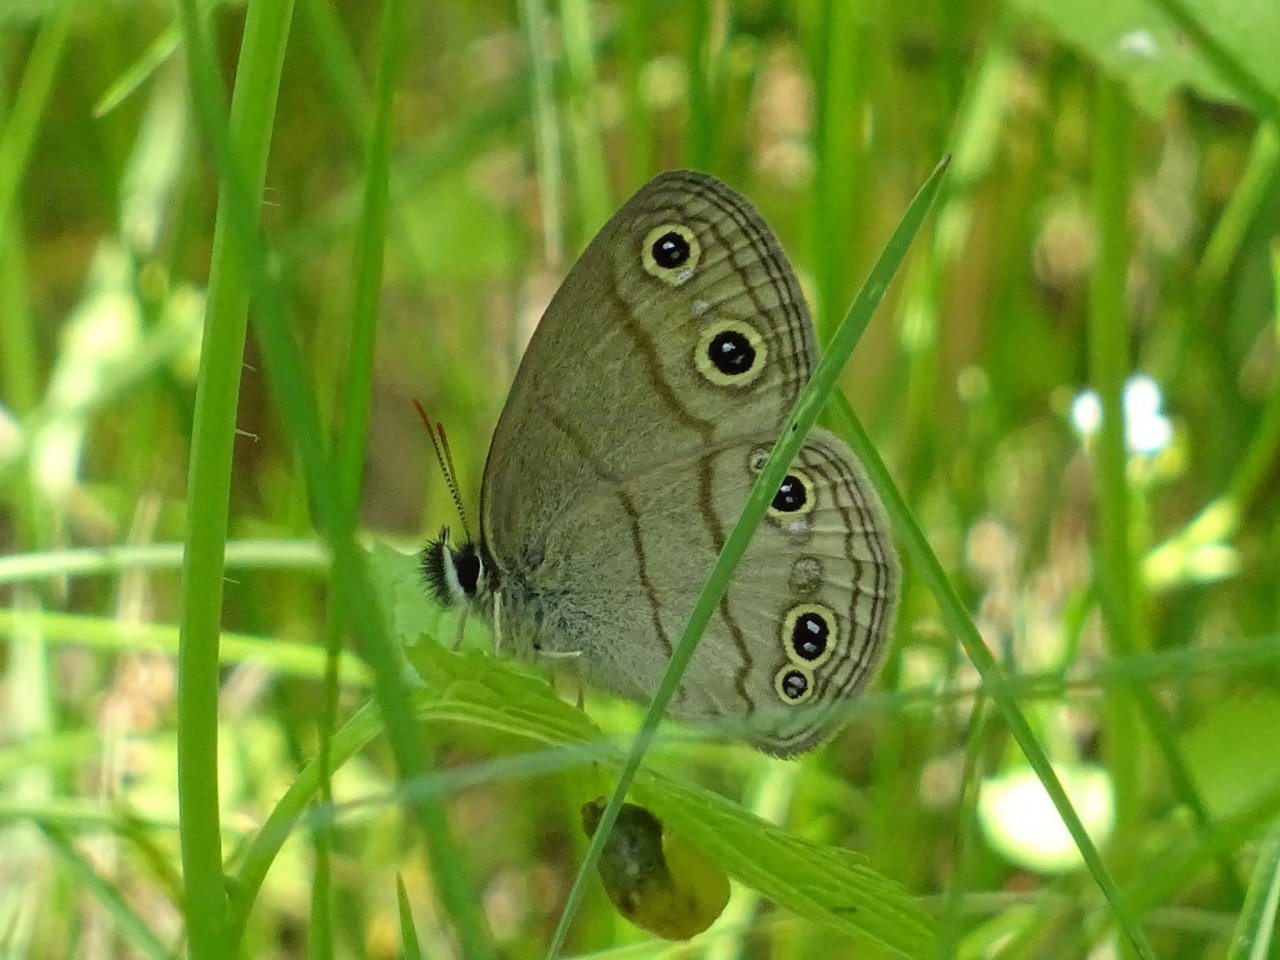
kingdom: Animalia
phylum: Arthropoda
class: Insecta
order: Lepidoptera
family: Nymphalidae
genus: Euptychia
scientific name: Euptychia cymela
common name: Little Wood Satyr
